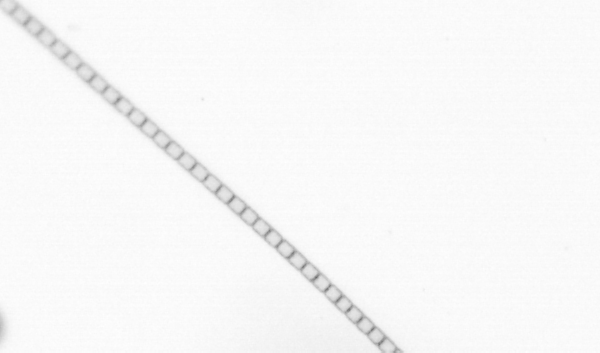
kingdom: Chromista
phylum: Ochrophyta
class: Bacillariophyceae
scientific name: Bacillariophyceae
